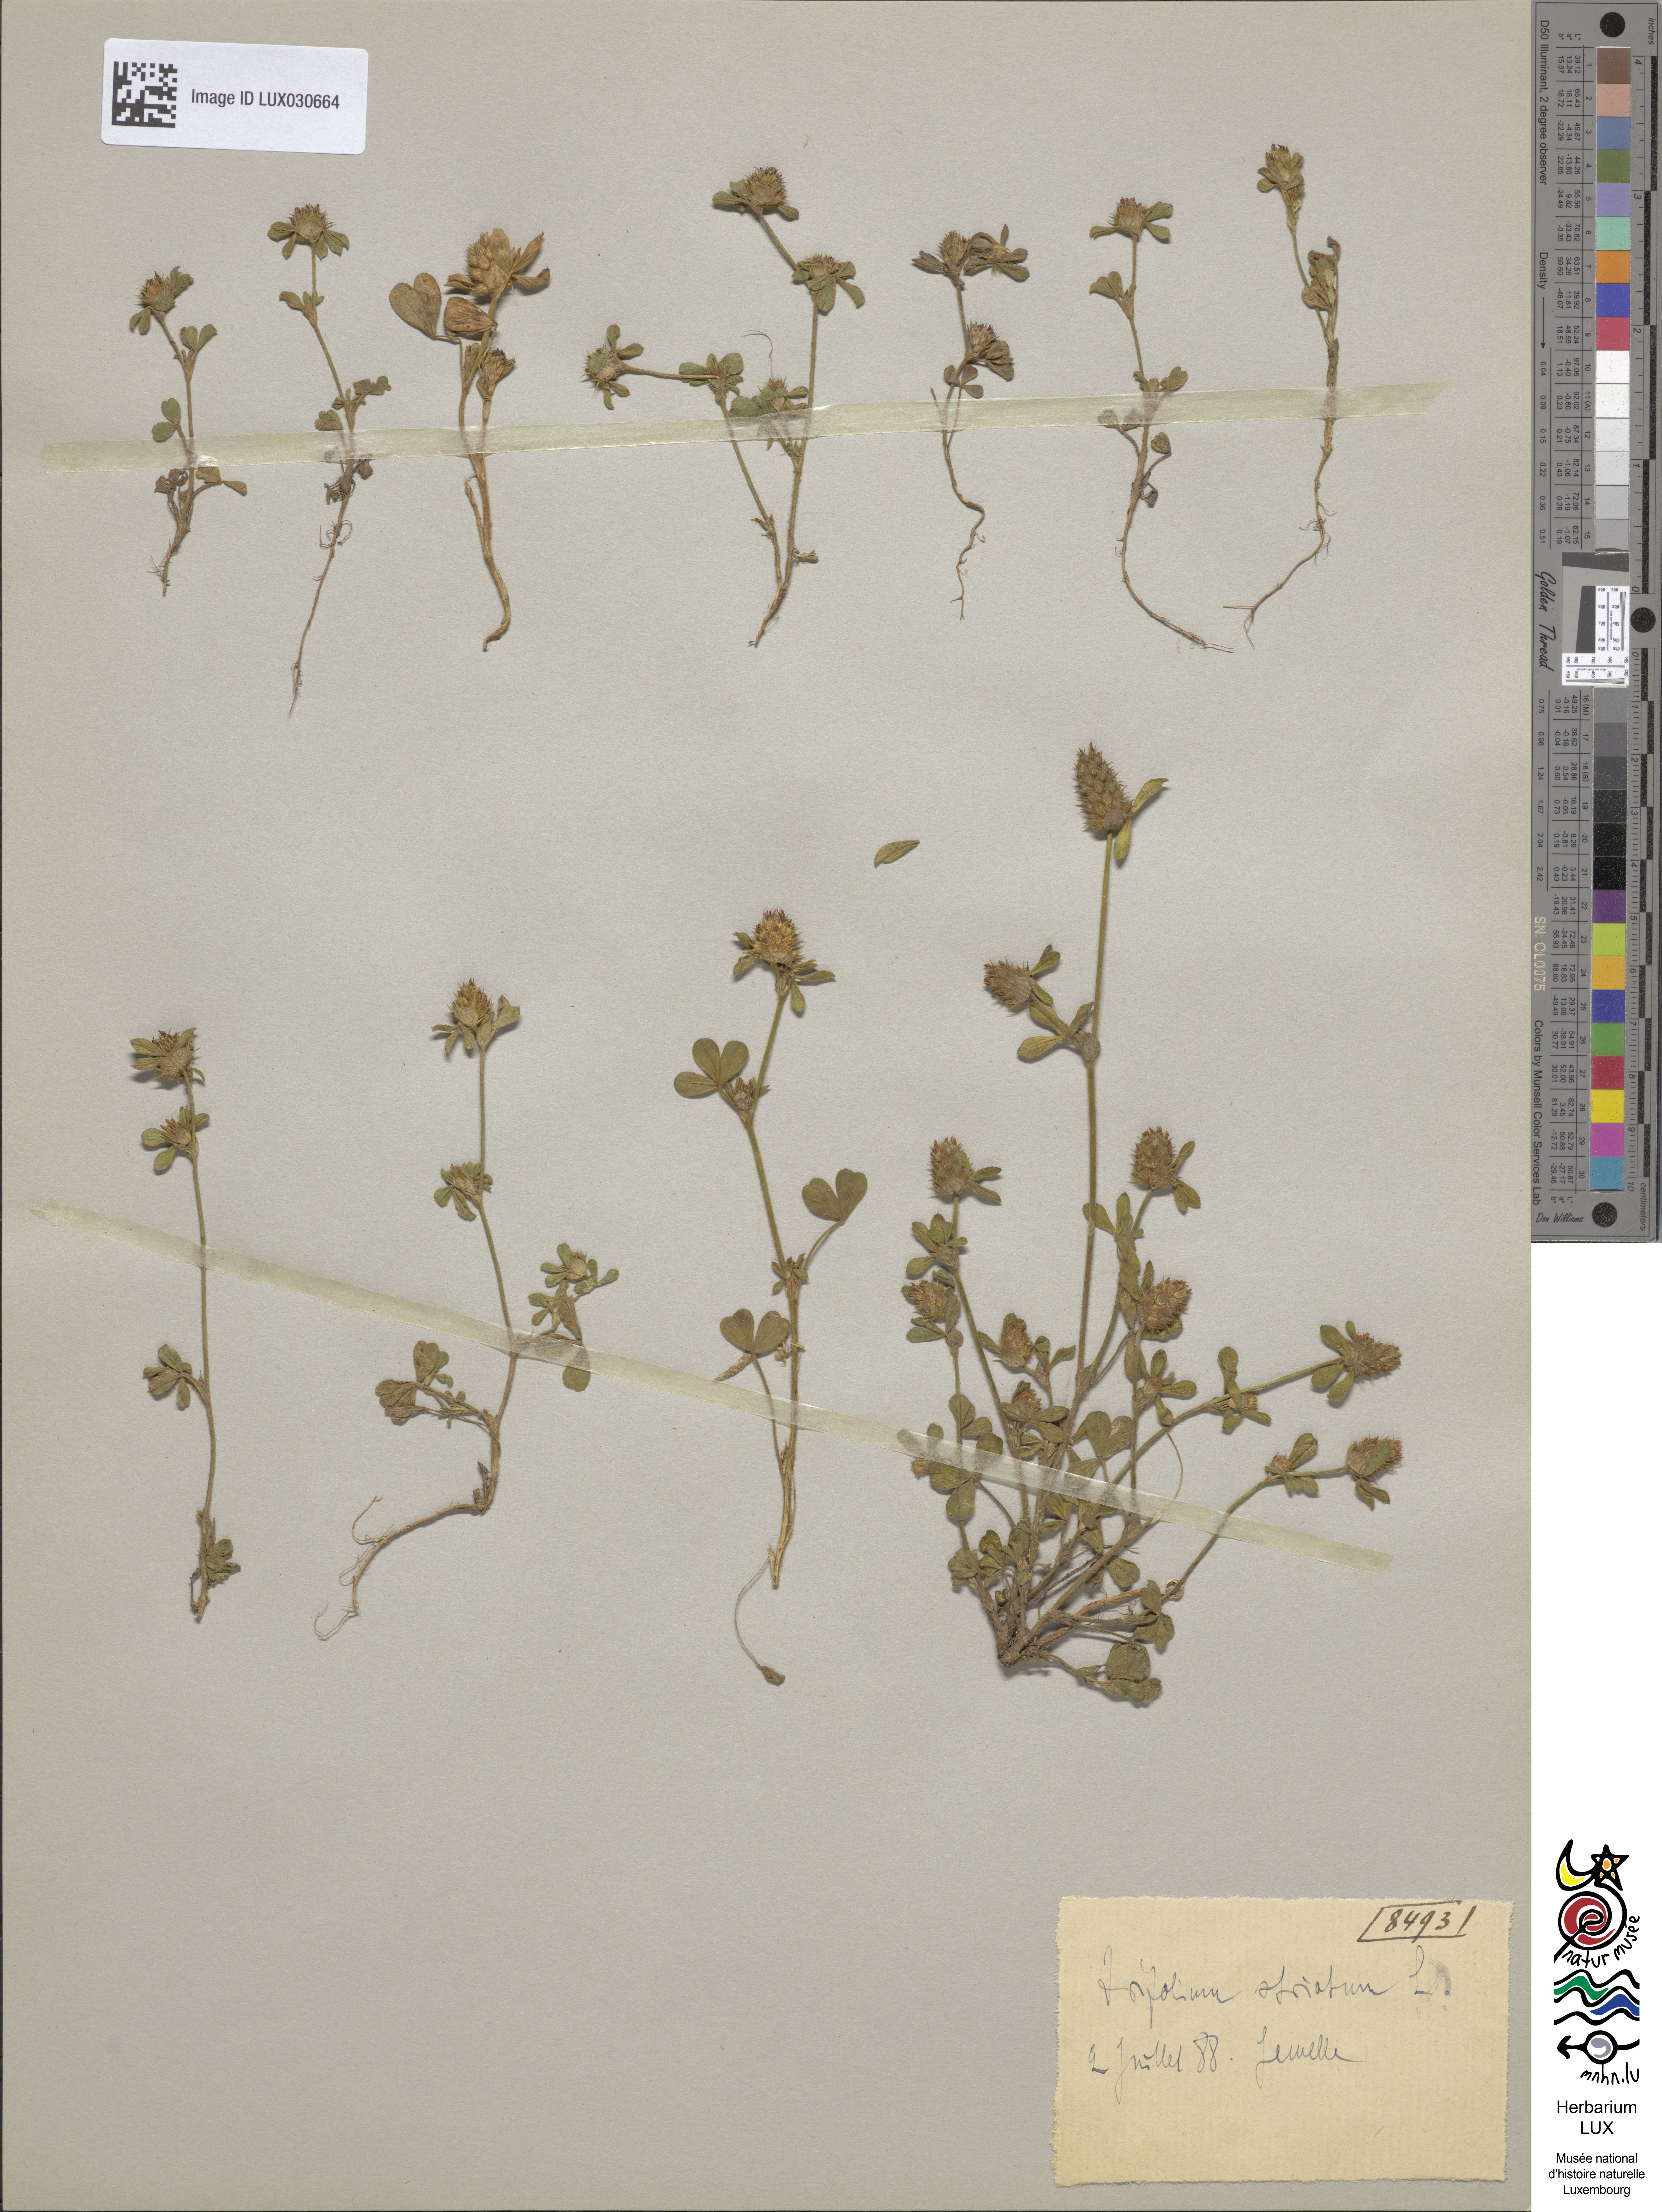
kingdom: Plantae
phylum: Tracheophyta
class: Magnoliopsida
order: Fabales
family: Fabaceae
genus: Trifolium
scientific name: Trifolium striatum
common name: Knotted clover
